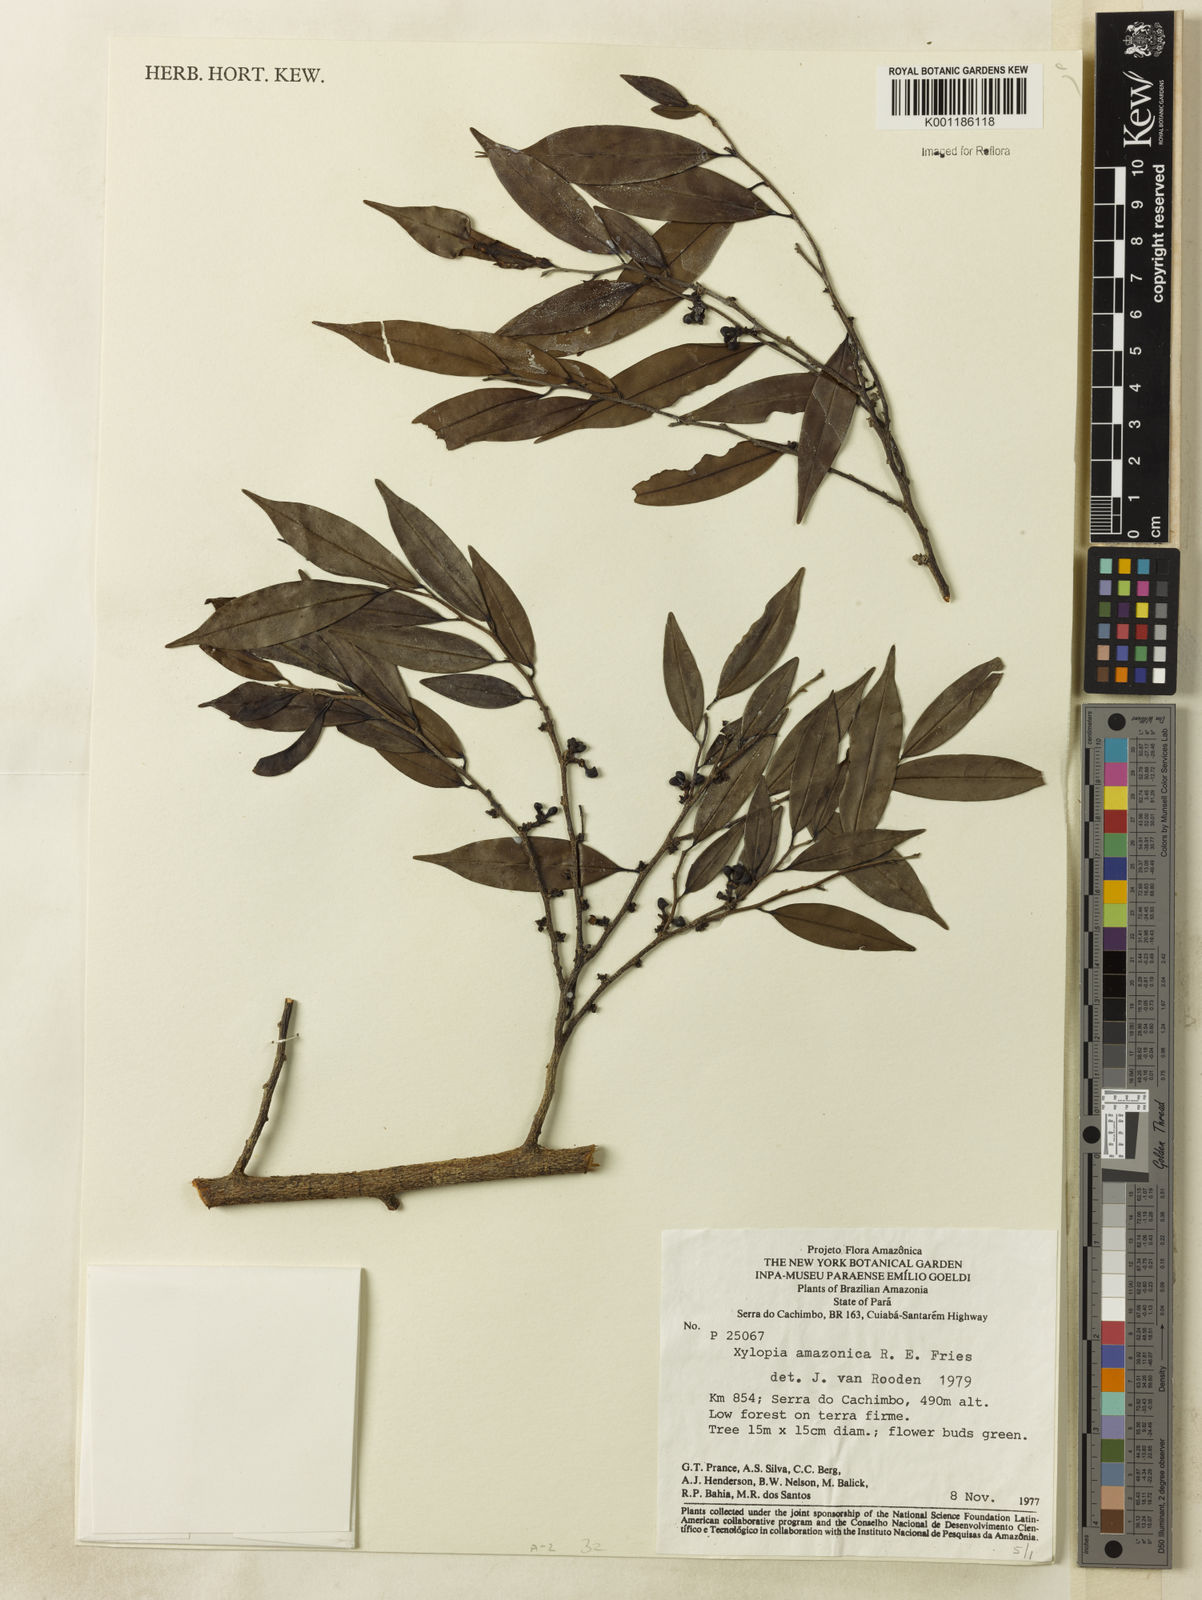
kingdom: Plantae
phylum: Tracheophyta
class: Magnoliopsida
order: Magnoliales
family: Annonaceae
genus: Xylopia
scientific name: Xylopia amazonica
